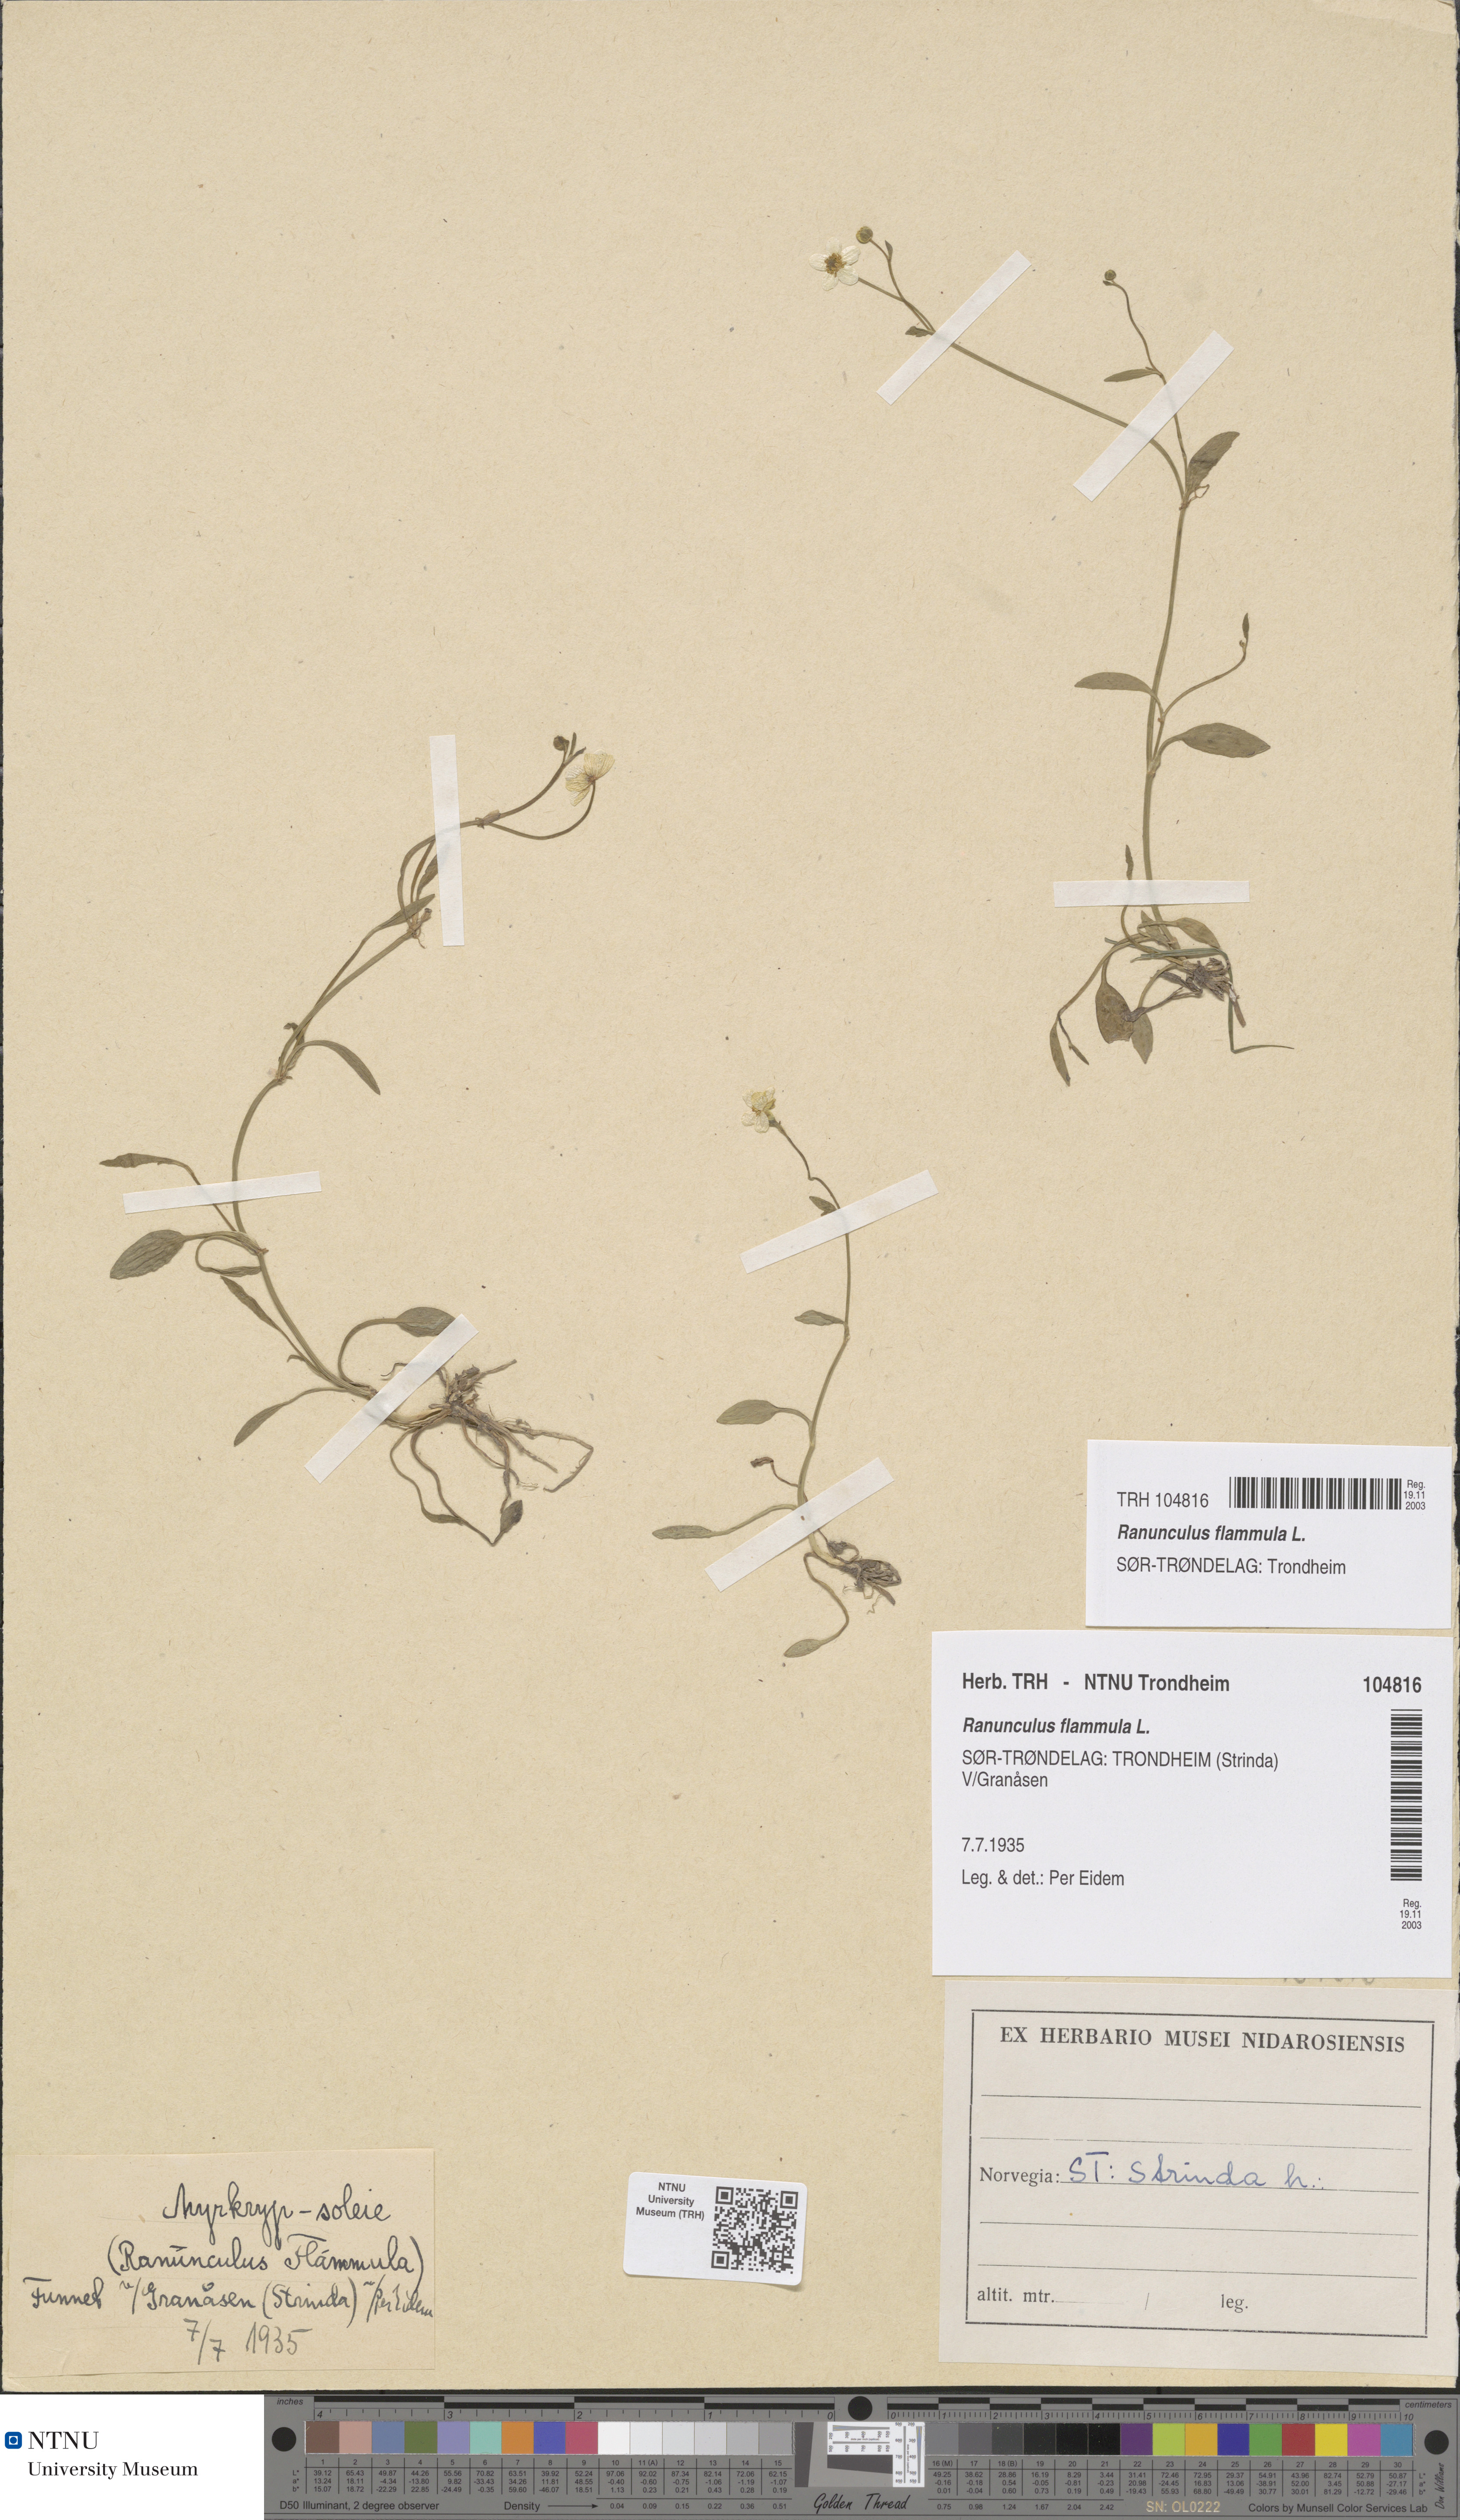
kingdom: Plantae
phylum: Tracheophyta
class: Magnoliopsida
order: Ranunculales
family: Ranunculaceae
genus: Ranunculus
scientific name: Ranunculus flammula
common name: Lesser spearwort
